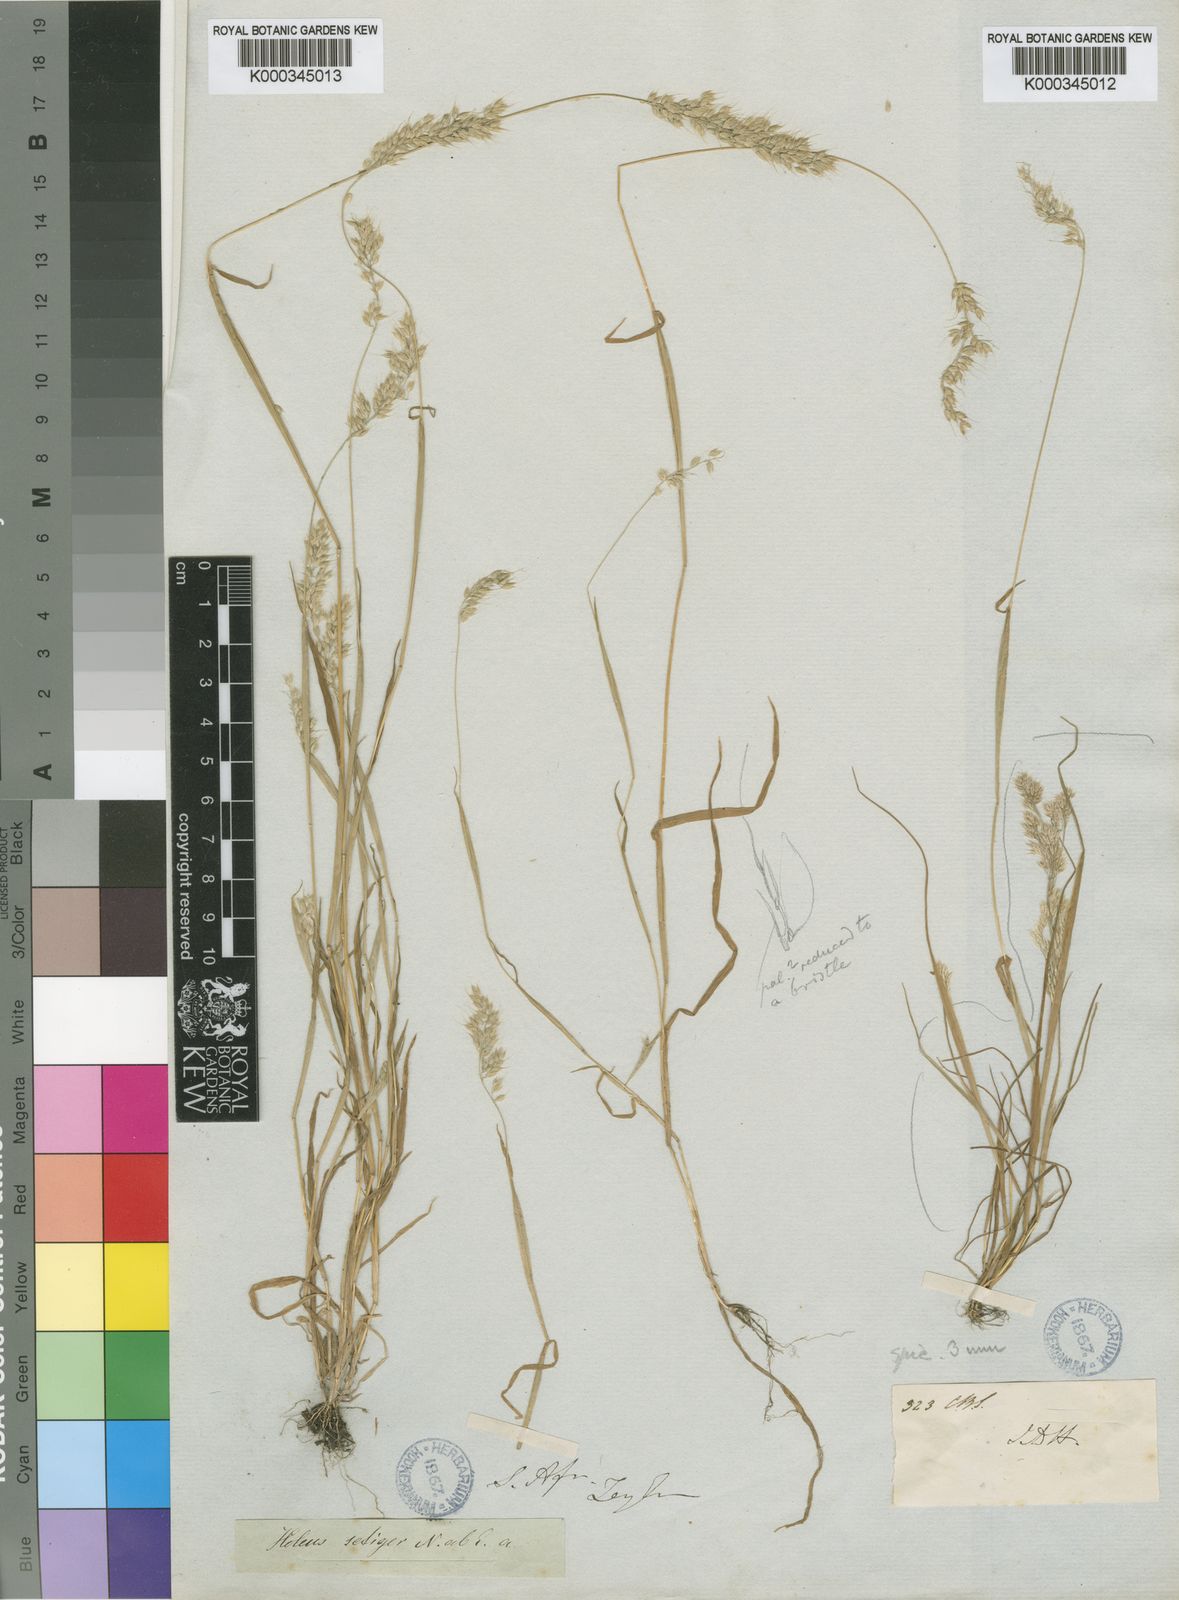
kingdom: Plantae
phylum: Tracheophyta
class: Liliopsida
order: Poales
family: Poaceae
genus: Holcus
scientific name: Holcus lanatus
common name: Yorkshire-fog
